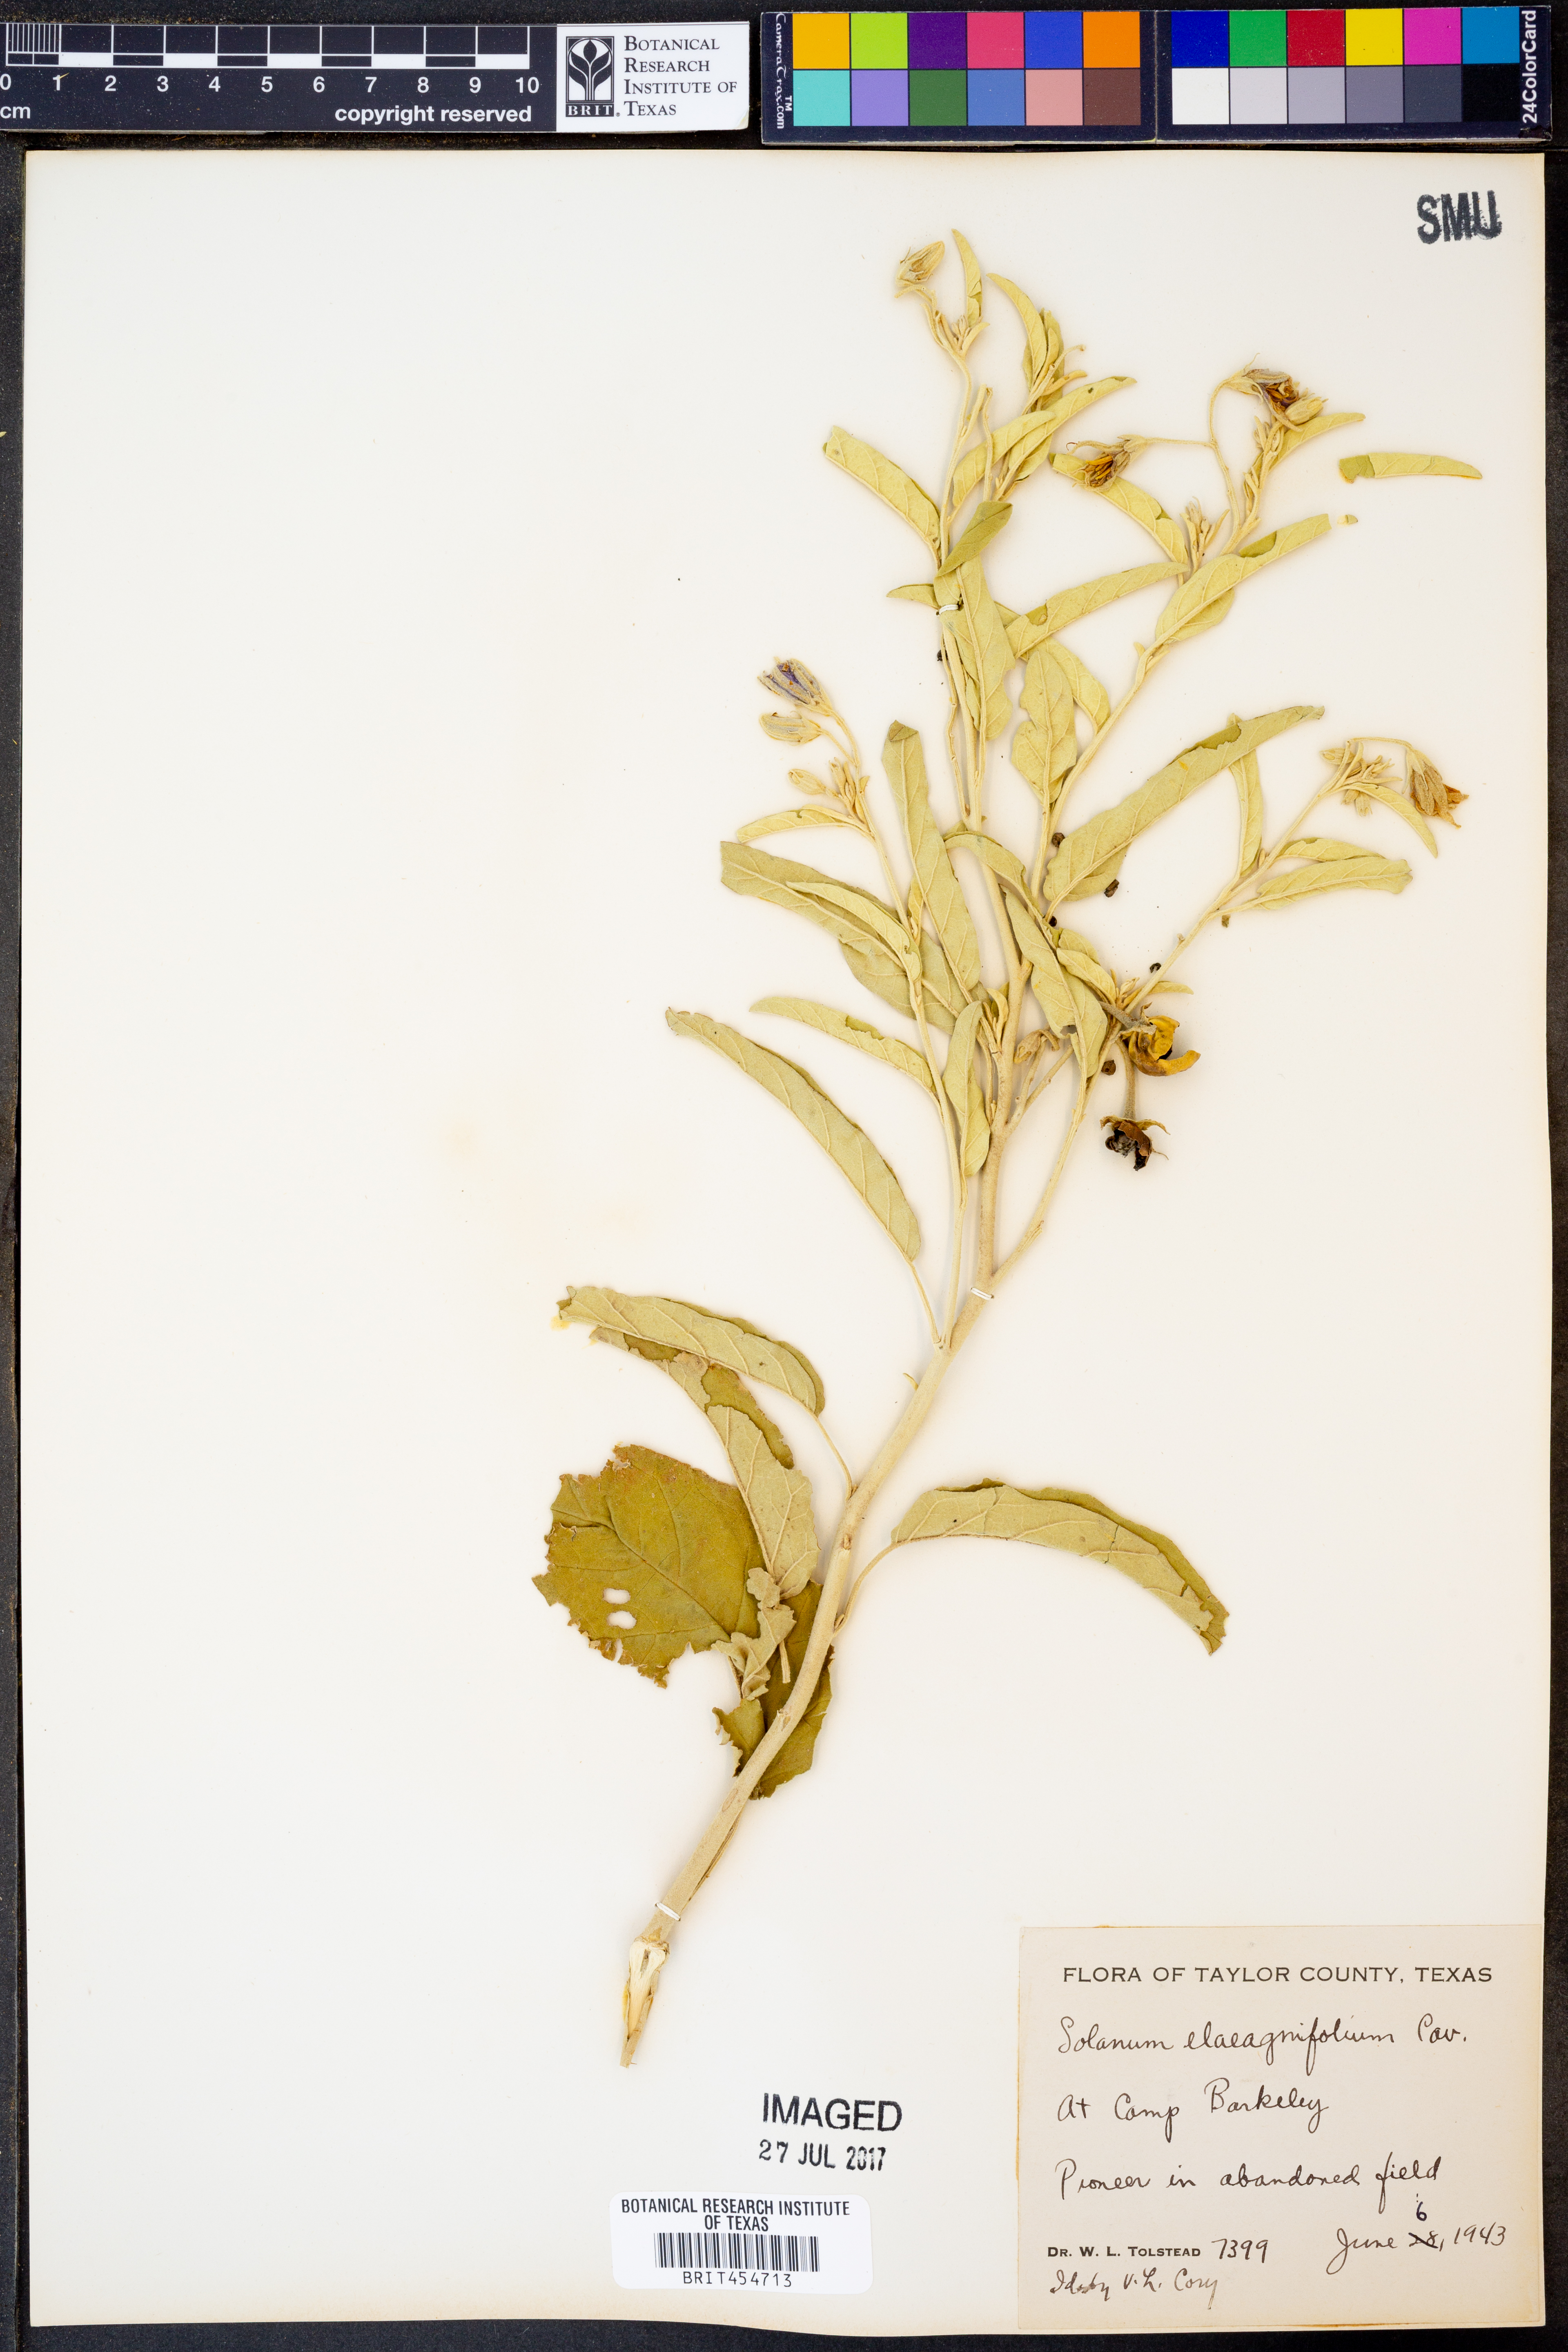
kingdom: Plantae
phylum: Tracheophyta
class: Magnoliopsida
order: Solanales
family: Solanaceae
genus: Solanum
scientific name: Solanum elaeagnifolium
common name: Silverleaf nightshade
